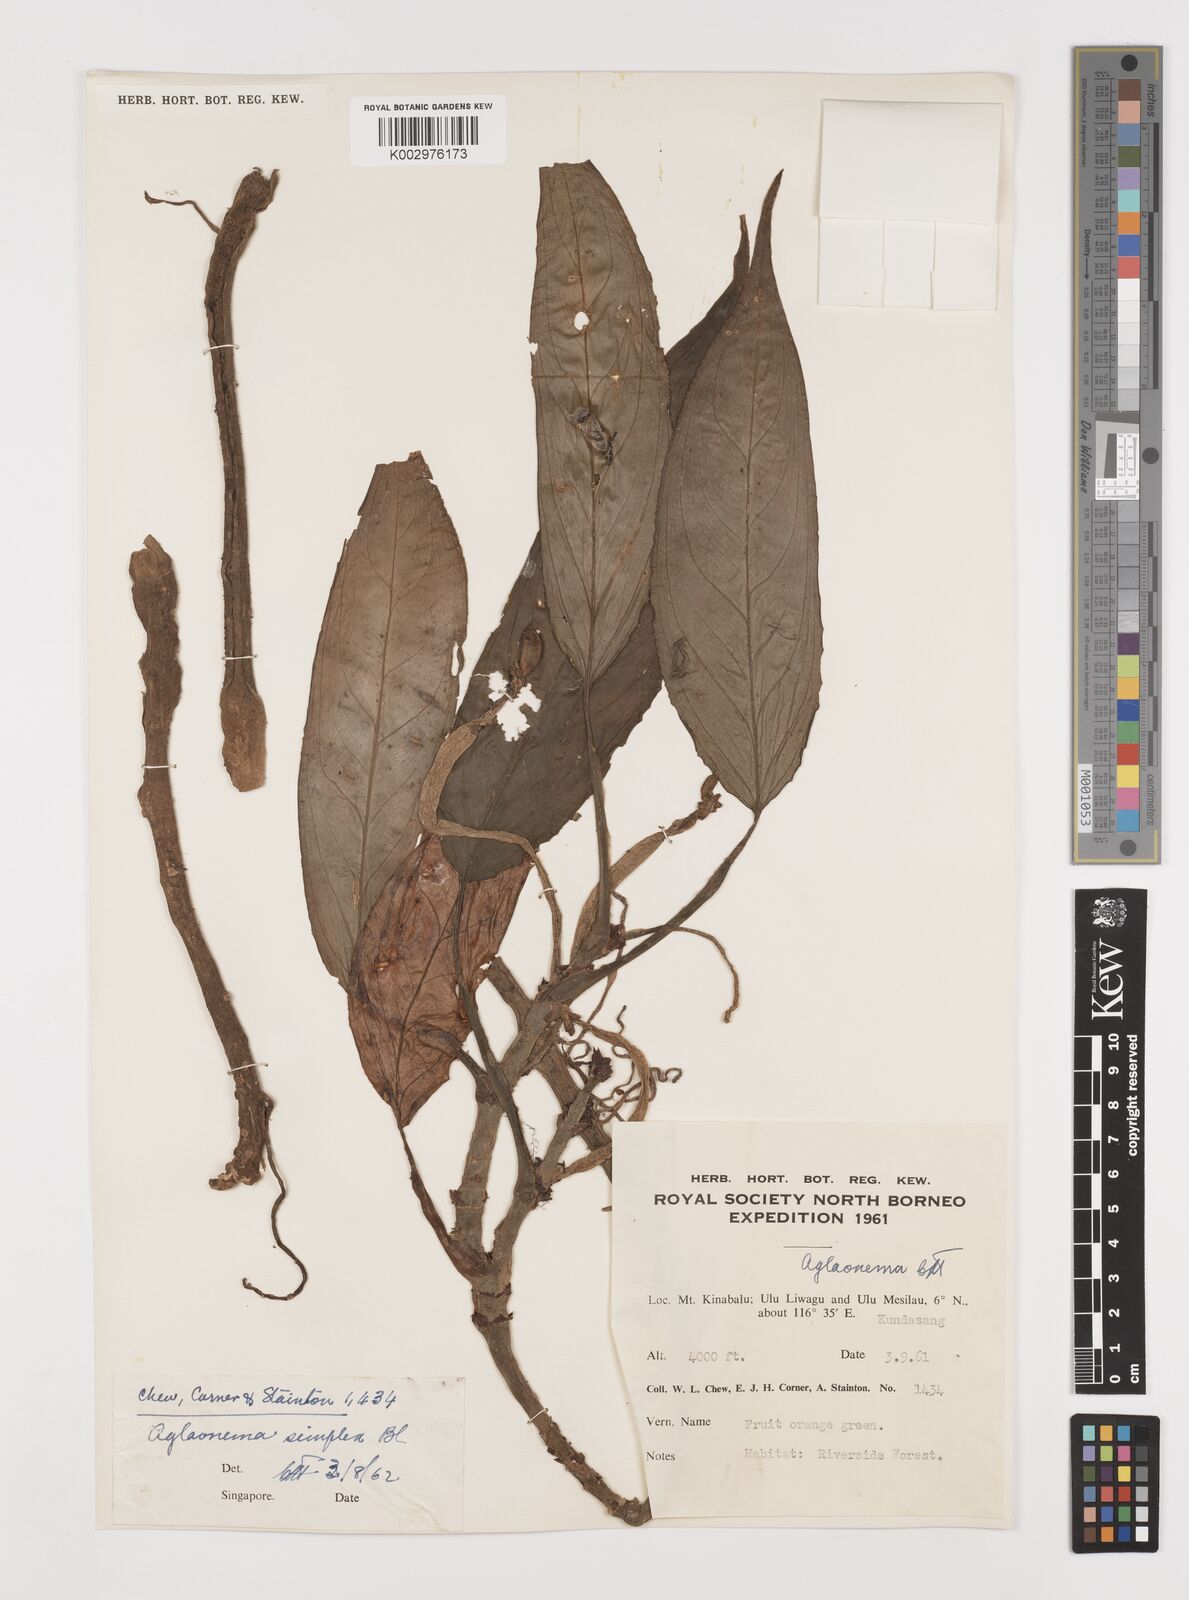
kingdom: Plantae
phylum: Tracheophyta
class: Liliopsida
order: Alismatales
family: Araceae
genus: Aglaonema
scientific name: Aglaonema simplex
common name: Malayan-sword
